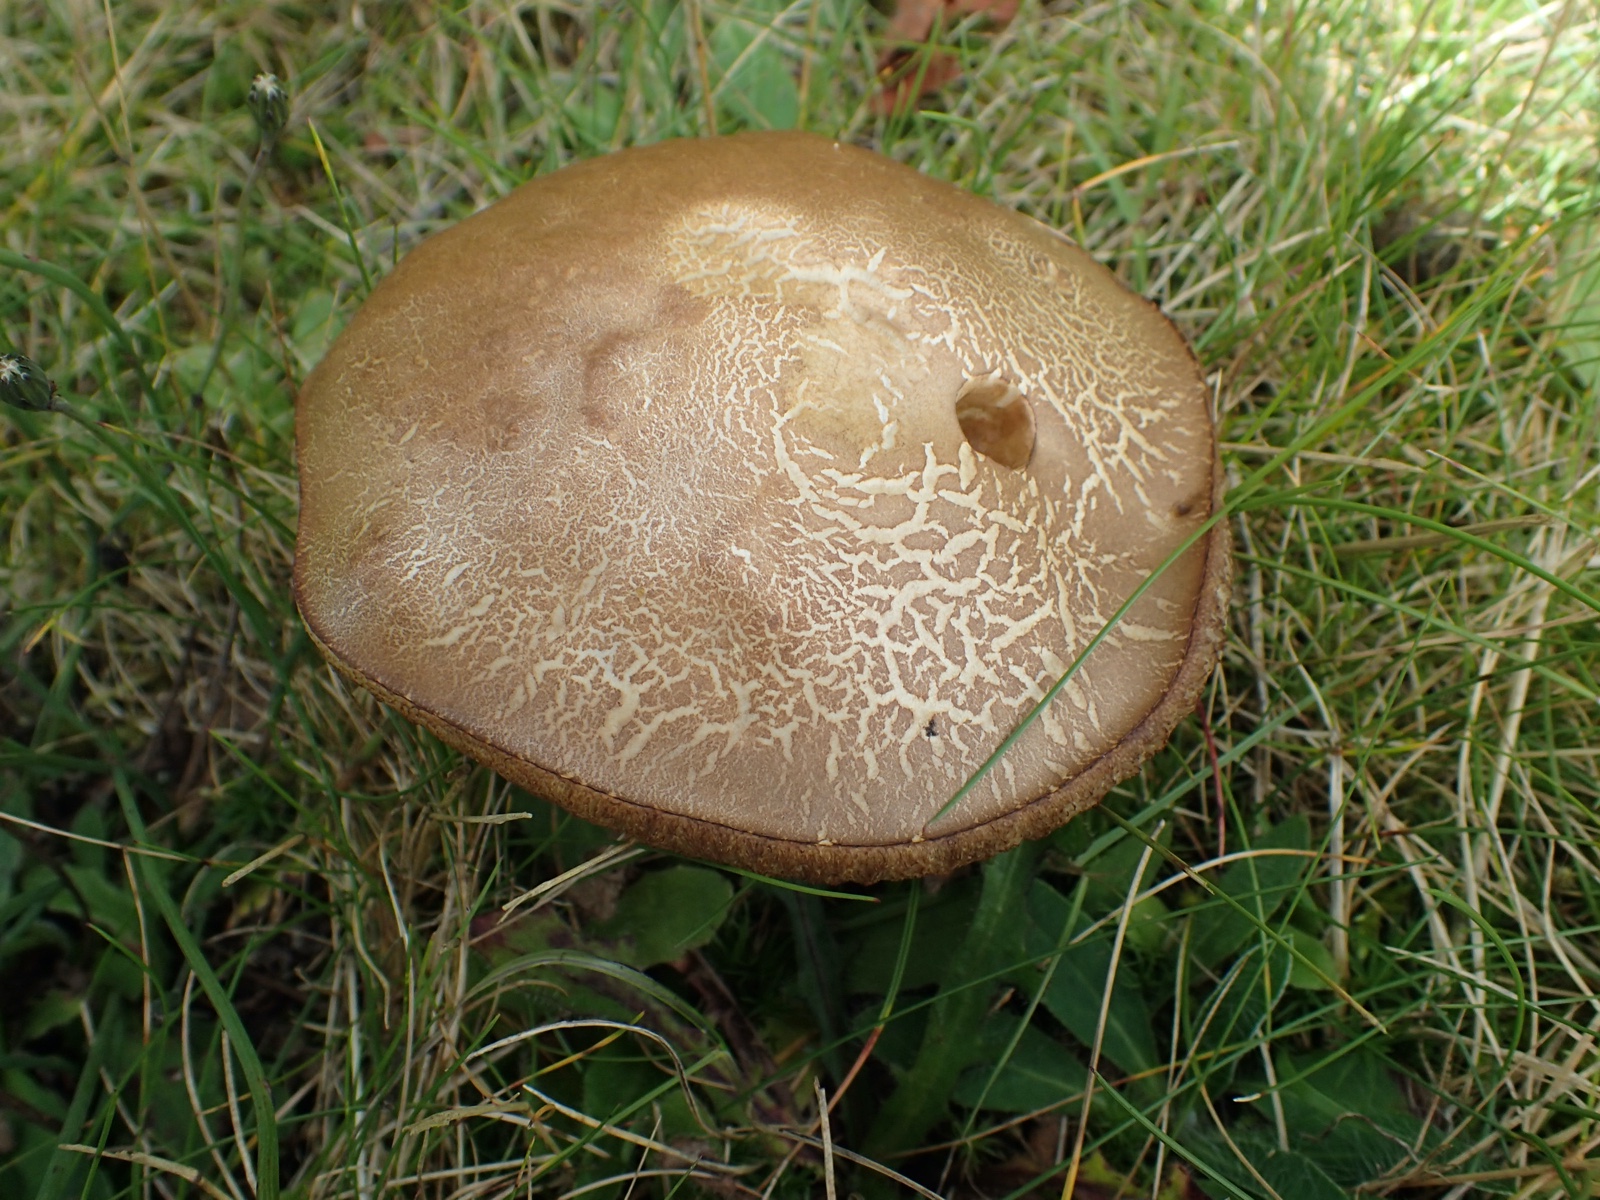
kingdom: Fungi
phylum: Basidiomycota
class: Agaricomycetes
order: Boletales
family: Boletaceae
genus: Leccinum
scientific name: Leccinum
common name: skælrørhat
